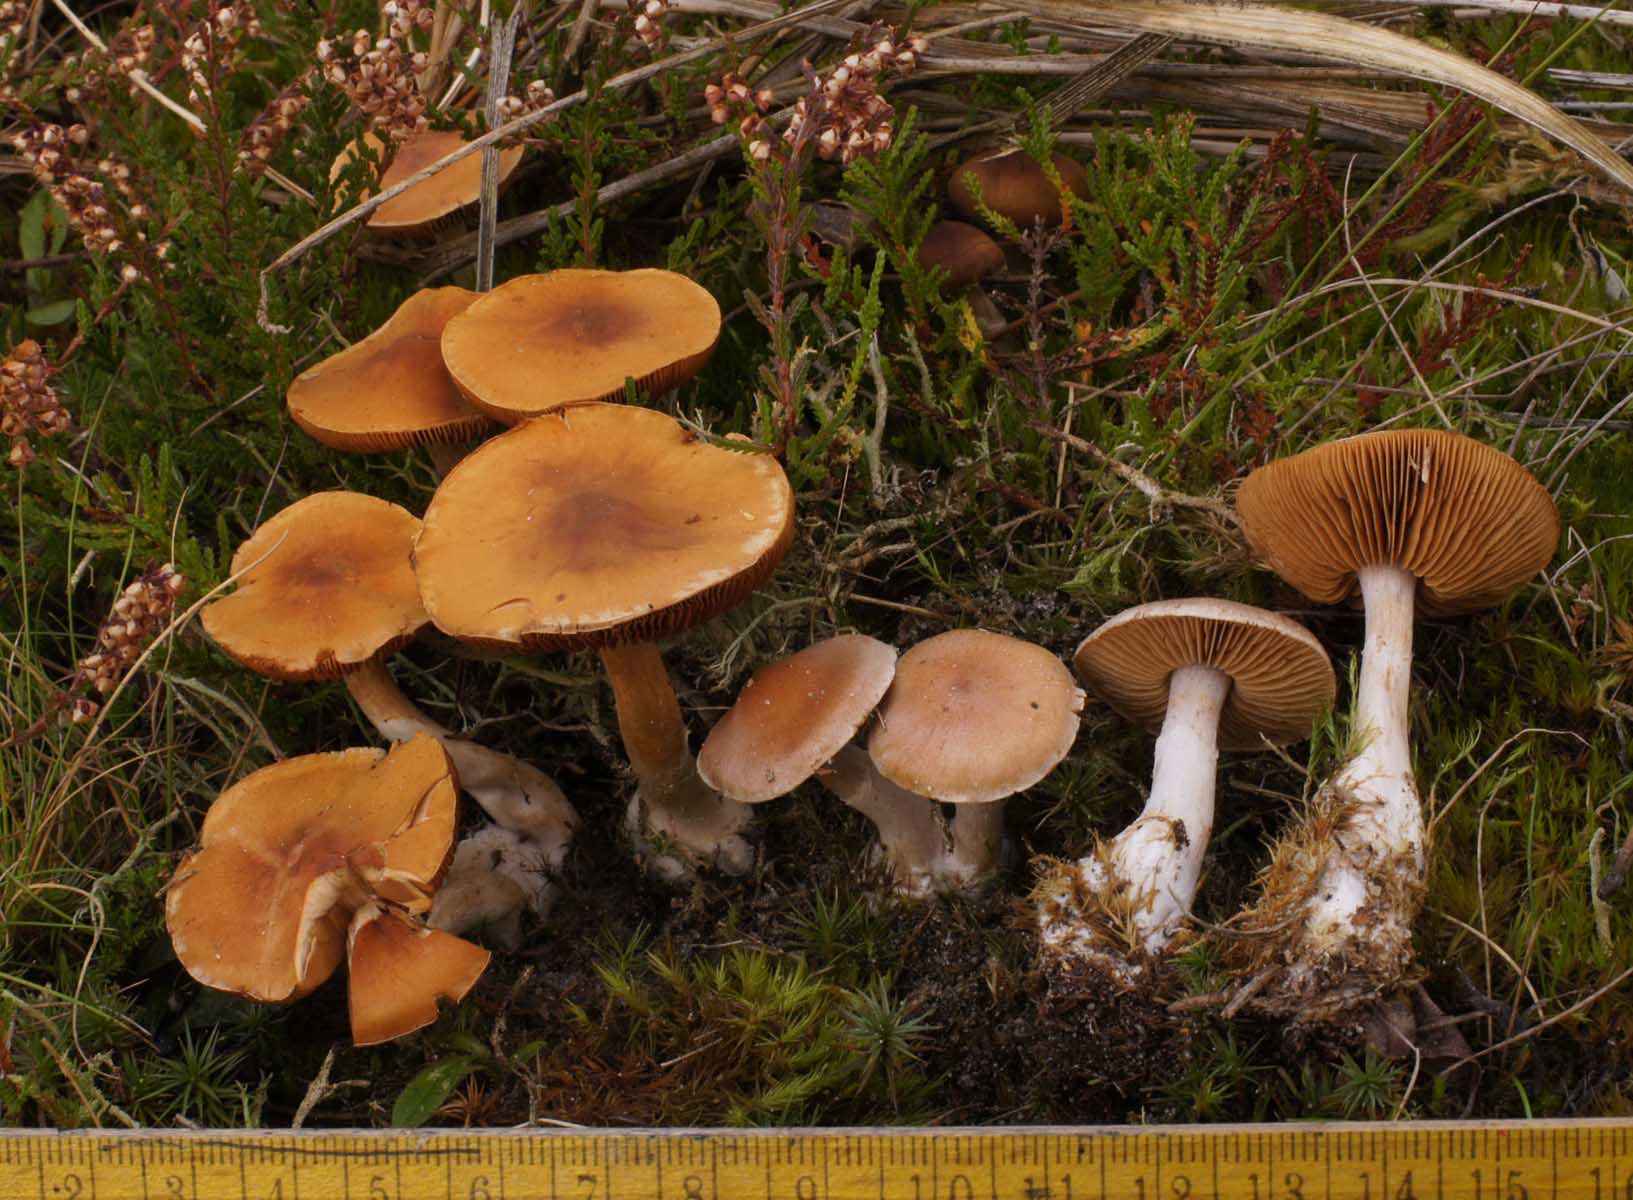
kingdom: Fungi
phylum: Basidiomycota
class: Agaricomycetes
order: Agaricales
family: Cortinariaceae
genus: Cortinarius
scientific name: Cortinarius circinans
